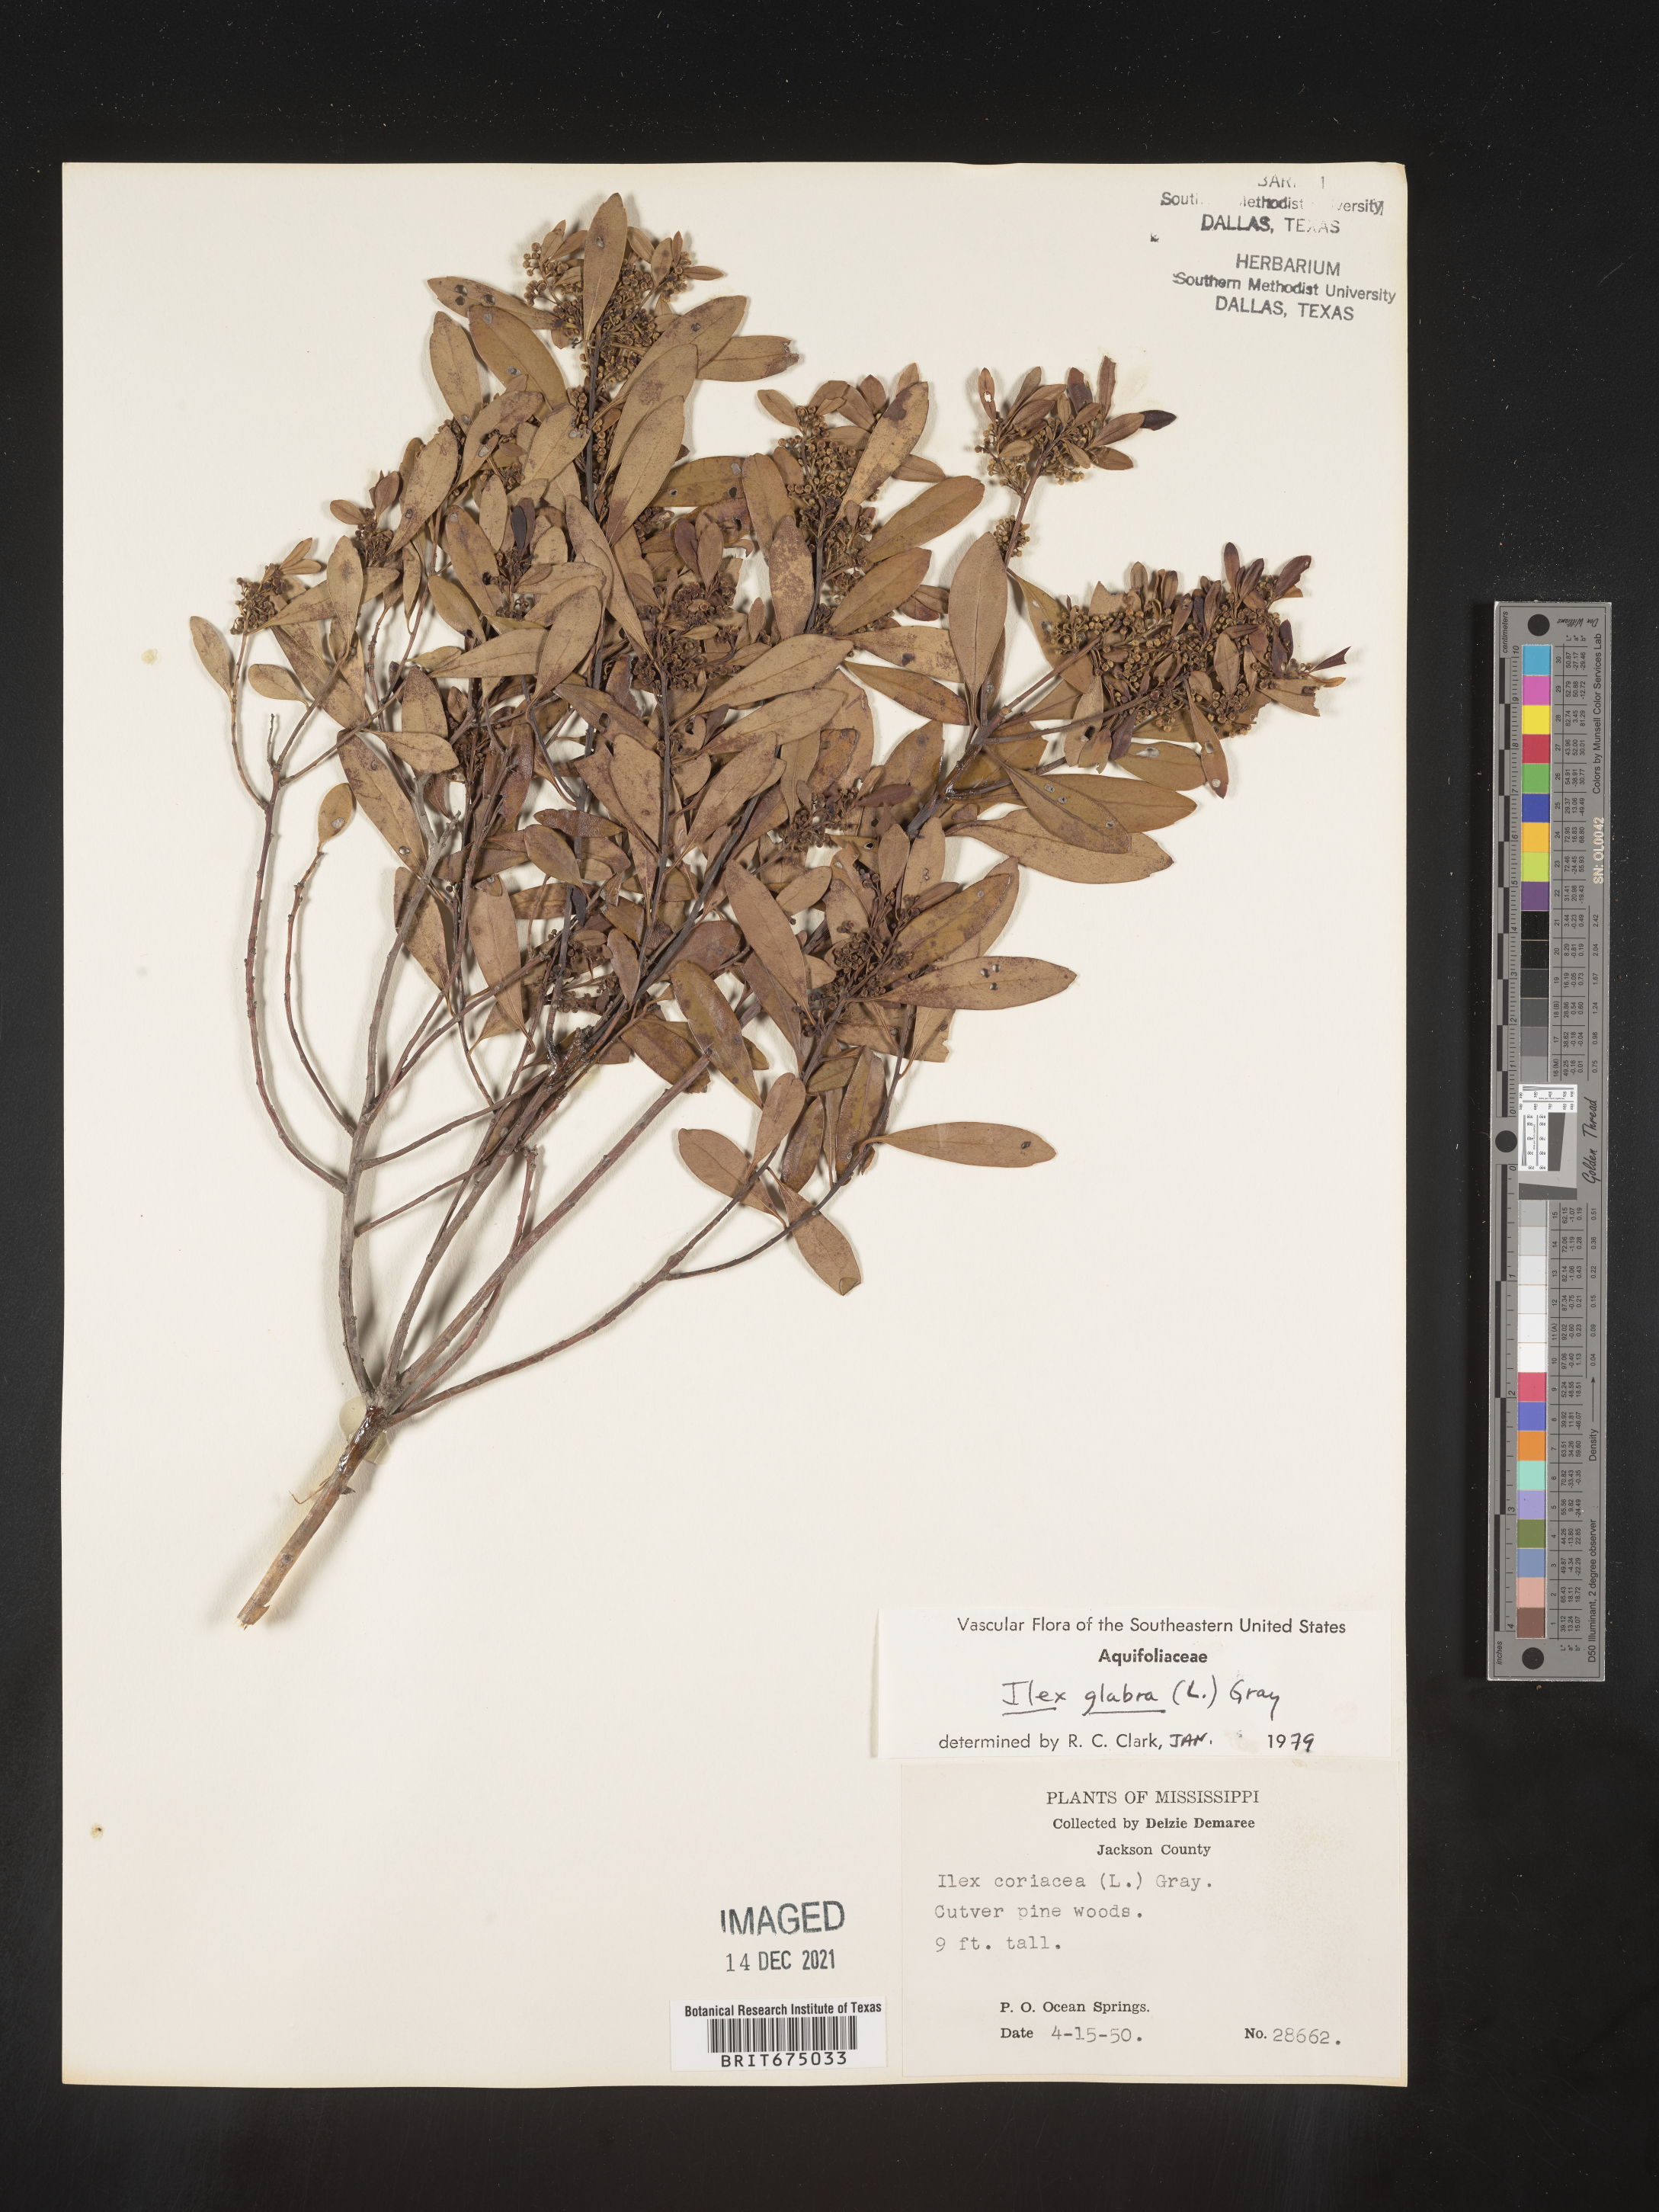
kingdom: Plantae
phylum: Tracheophyta
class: Magnoliopsida
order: Aquifoliales
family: Aquifoliaceae
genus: Ilex
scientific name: Ilex glabra
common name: Bitter gallberry
